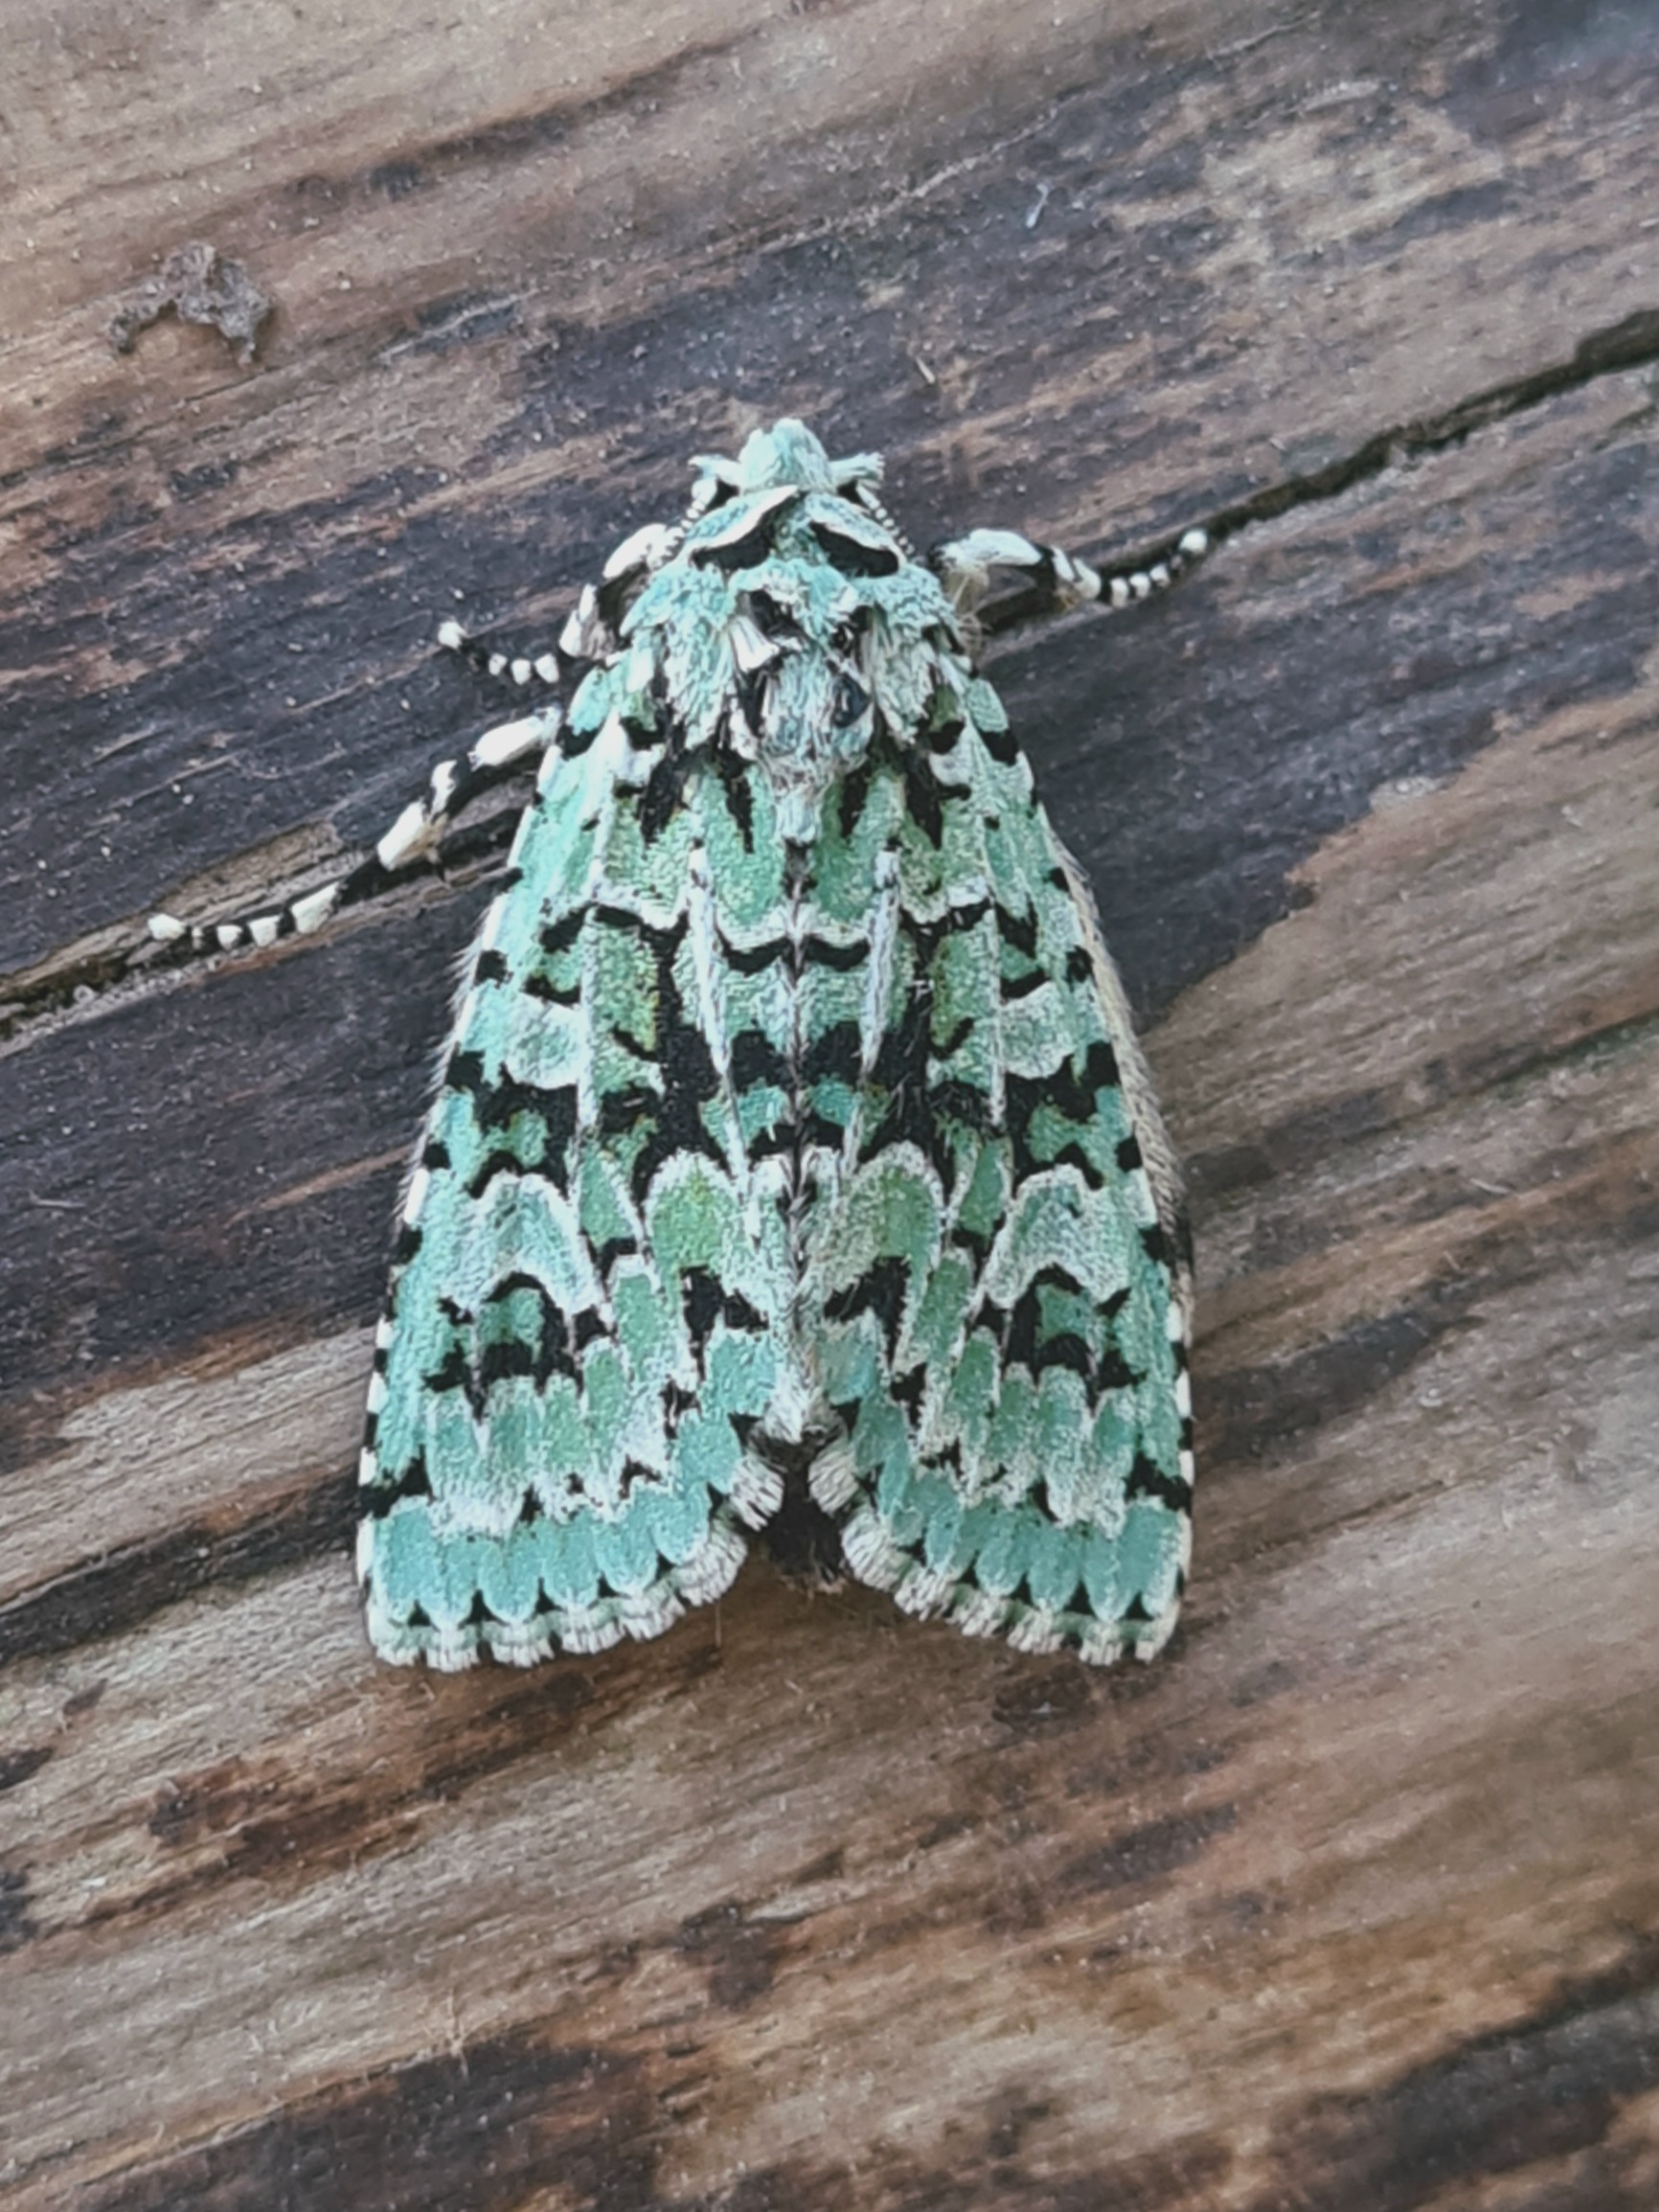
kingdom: Animalia
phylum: Arthropoda
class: Insecta
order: Lepidoptera
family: Noctuidae
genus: Griposia
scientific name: Griposia aprilina
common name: Aprilugle
